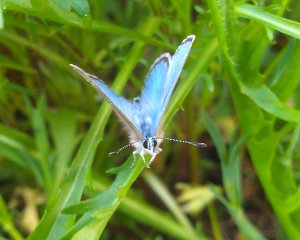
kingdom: Animalia
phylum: Arthropoda
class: Insecta
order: Lepidoptera
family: Lycaenidae
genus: Glaucopsyche
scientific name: Glaucopsyche lygdamus
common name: Silvery Blue
